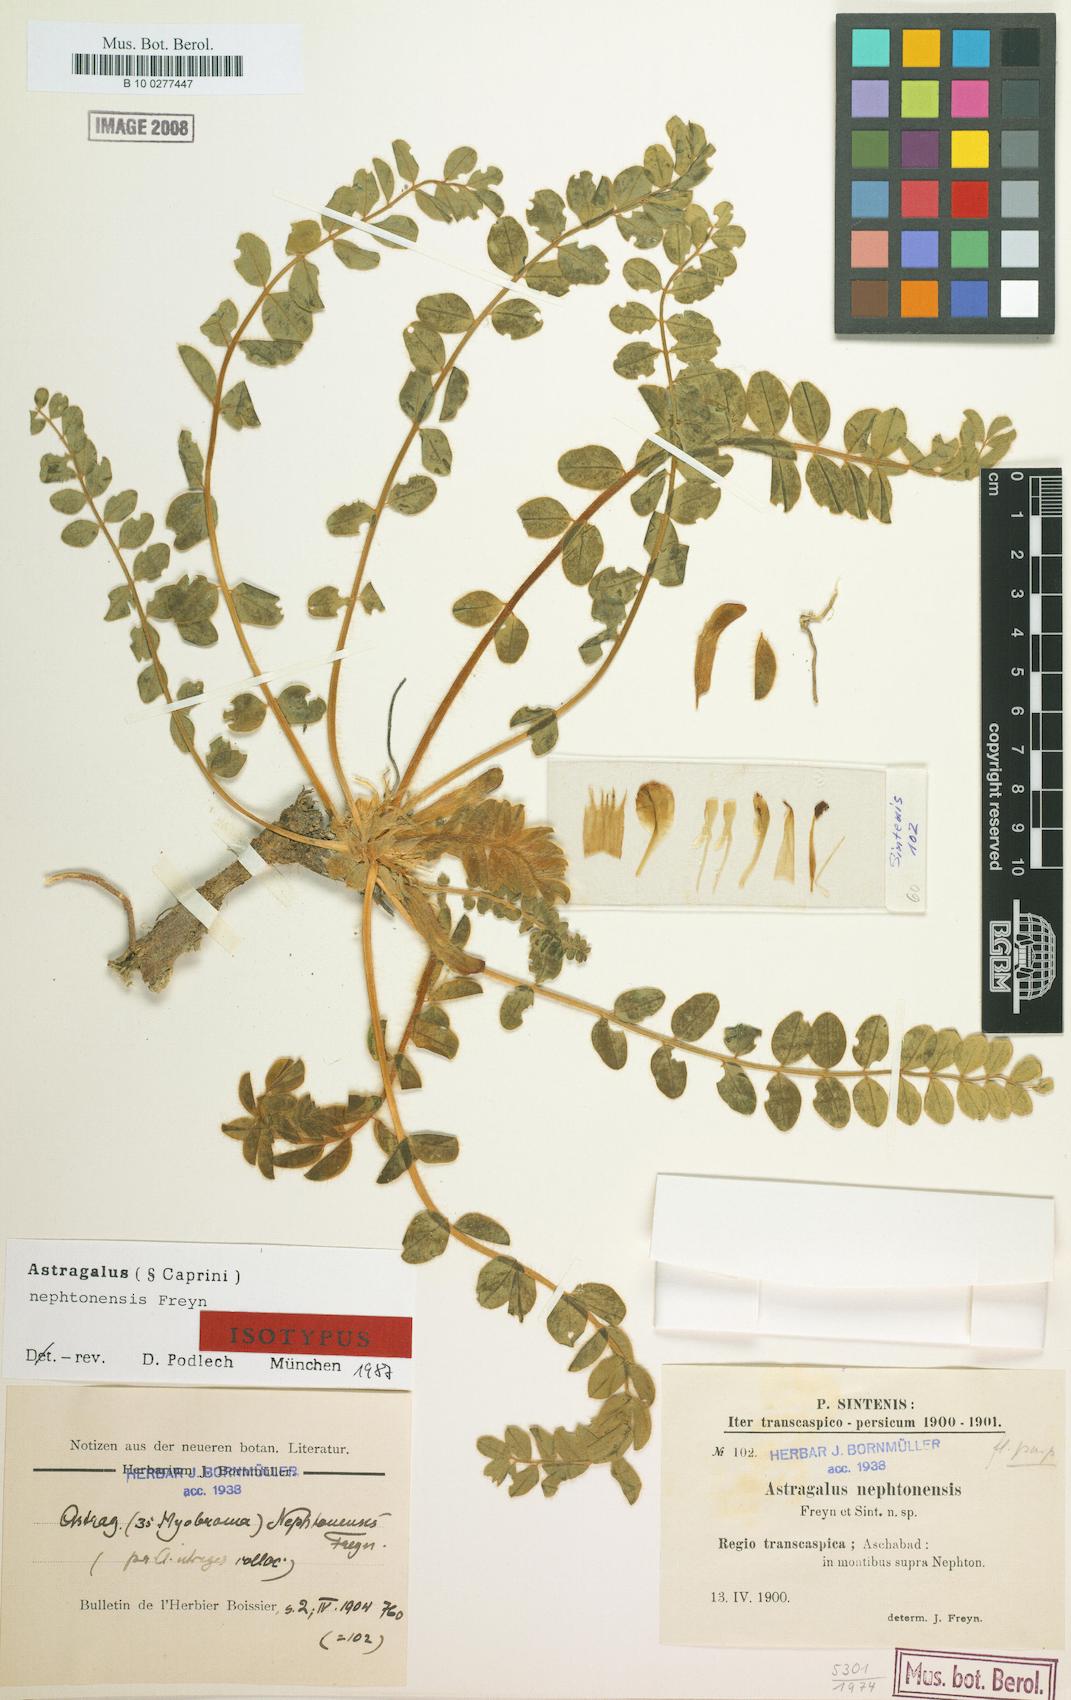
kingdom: Plantae
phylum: Tracheophyta
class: Magnoliopsida
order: Fabales
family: Fabaceae
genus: Astragalus
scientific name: Astragalus nephtonensis
